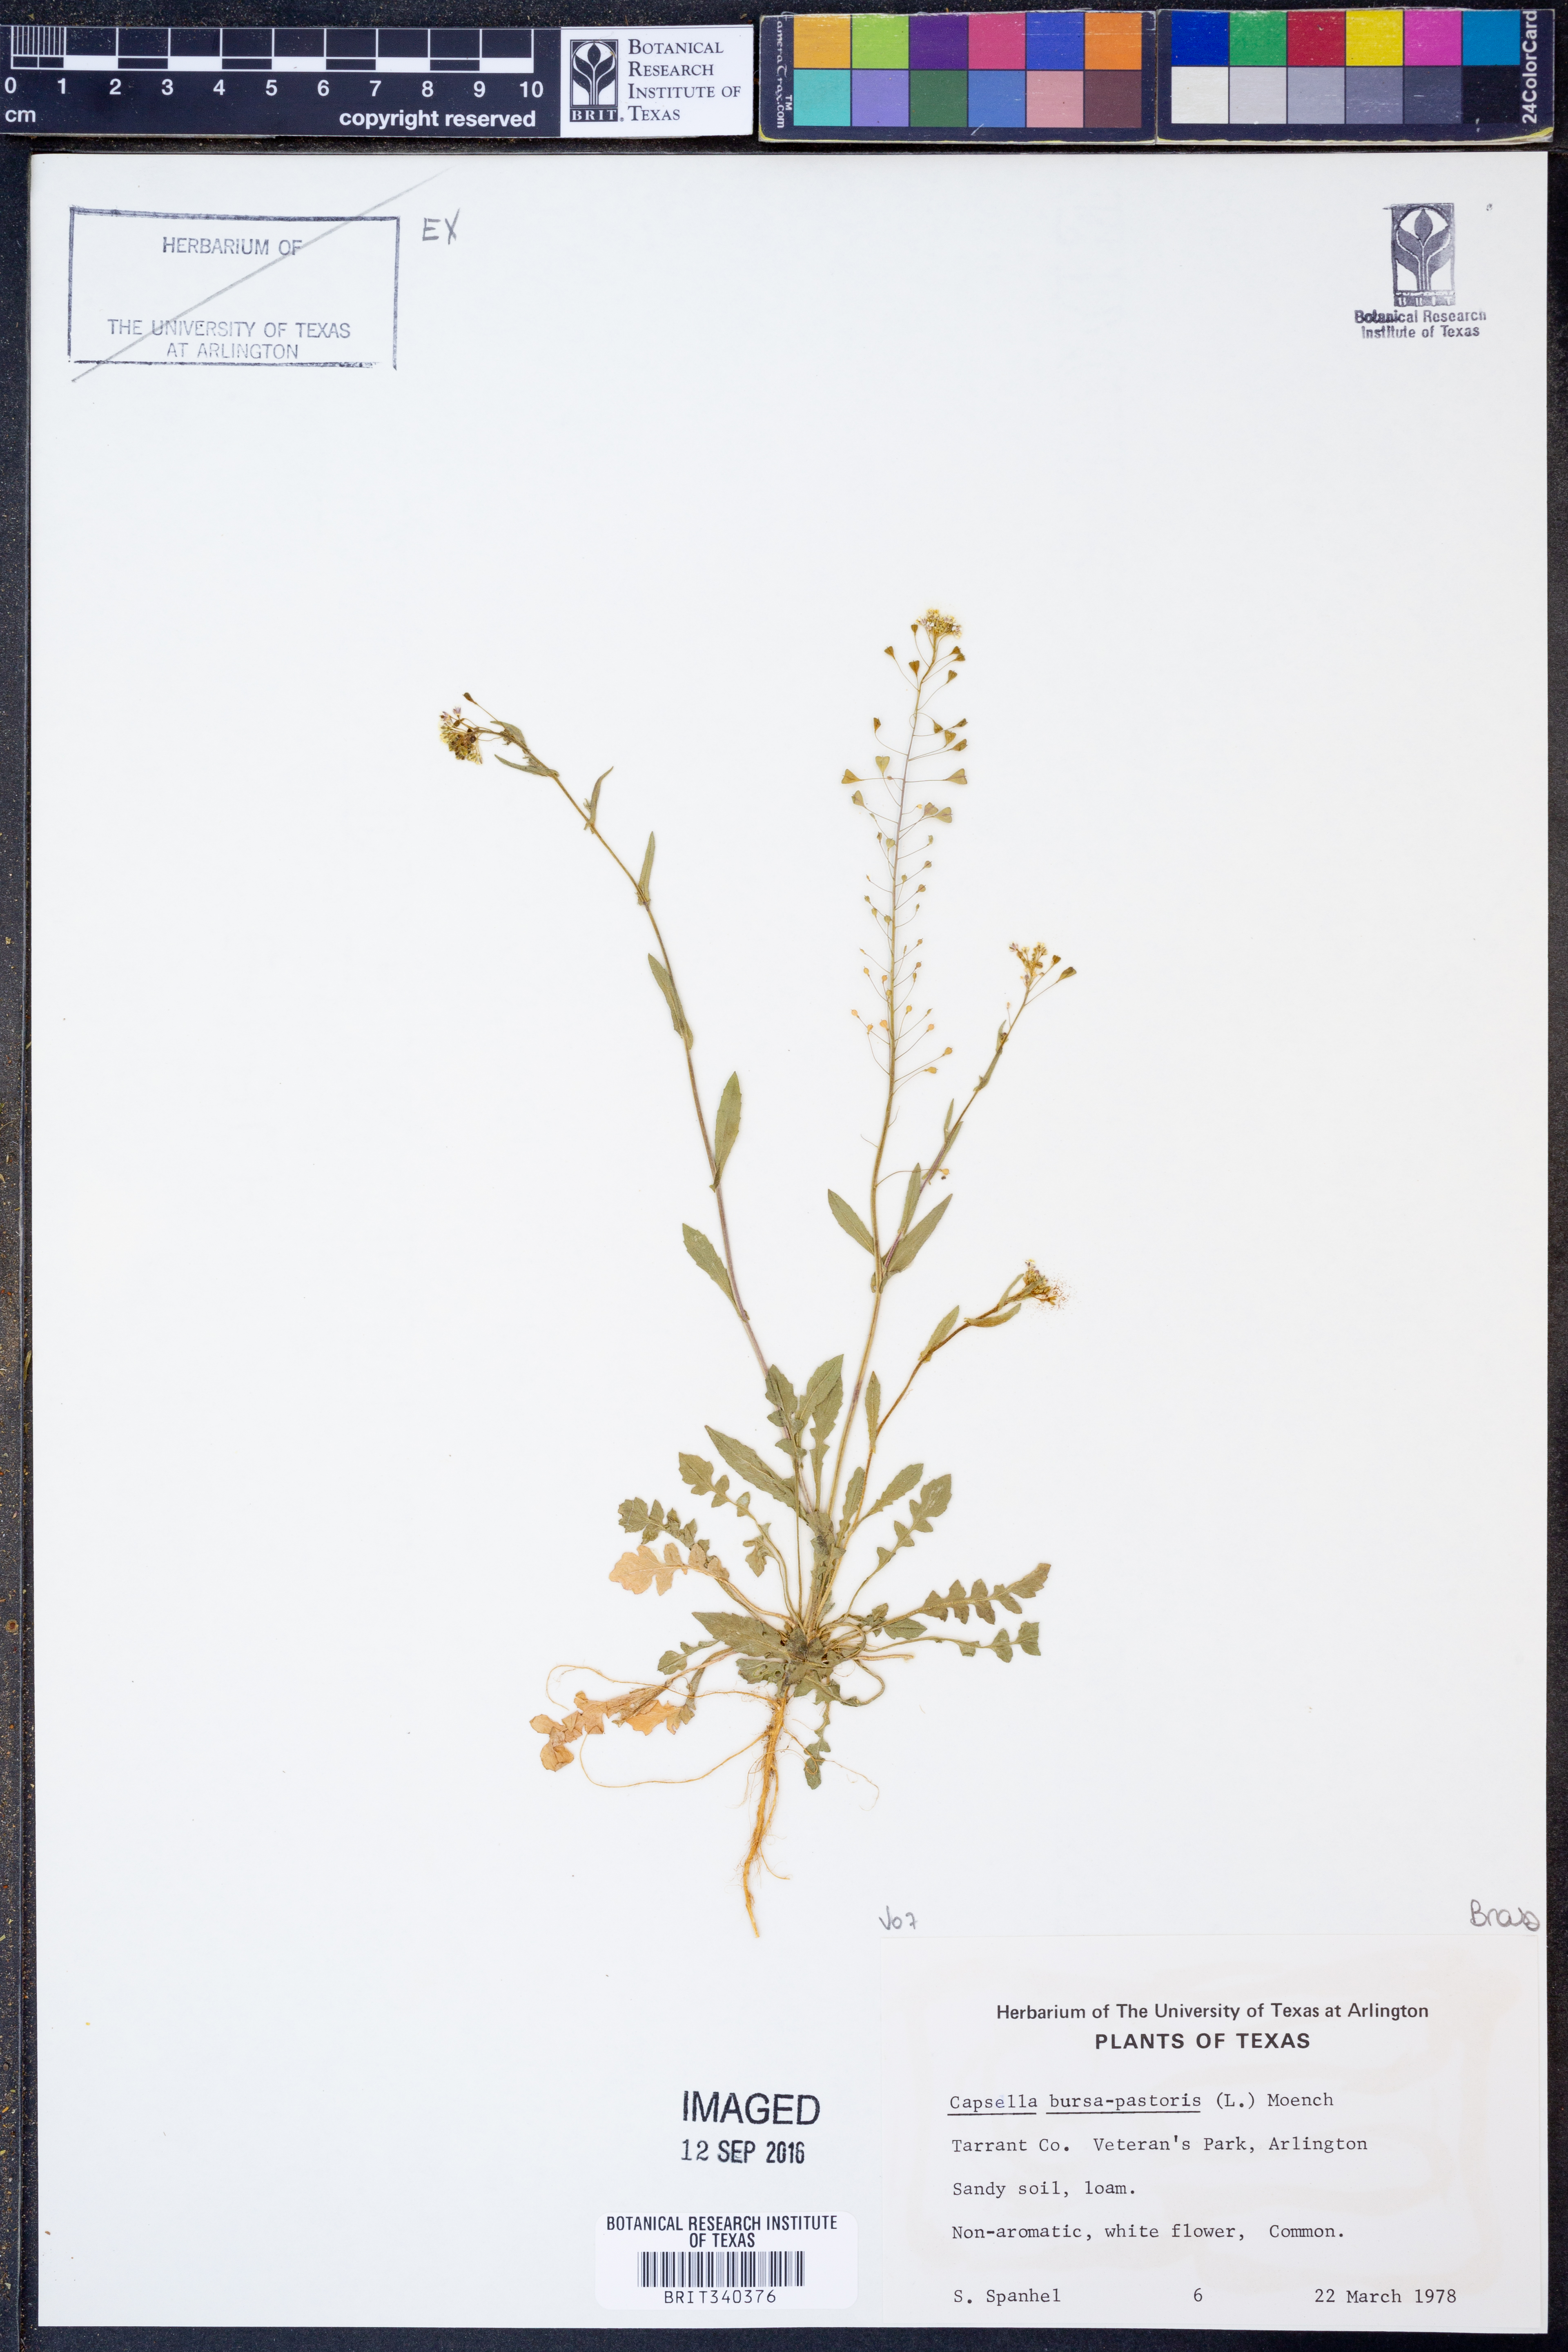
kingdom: Plantae
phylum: Tracheophyta
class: Magnoliopsida
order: Brassicales
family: Brassicaceae
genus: Capsella
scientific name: Capsella bursa-pastoris
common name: Shepherd's purse
